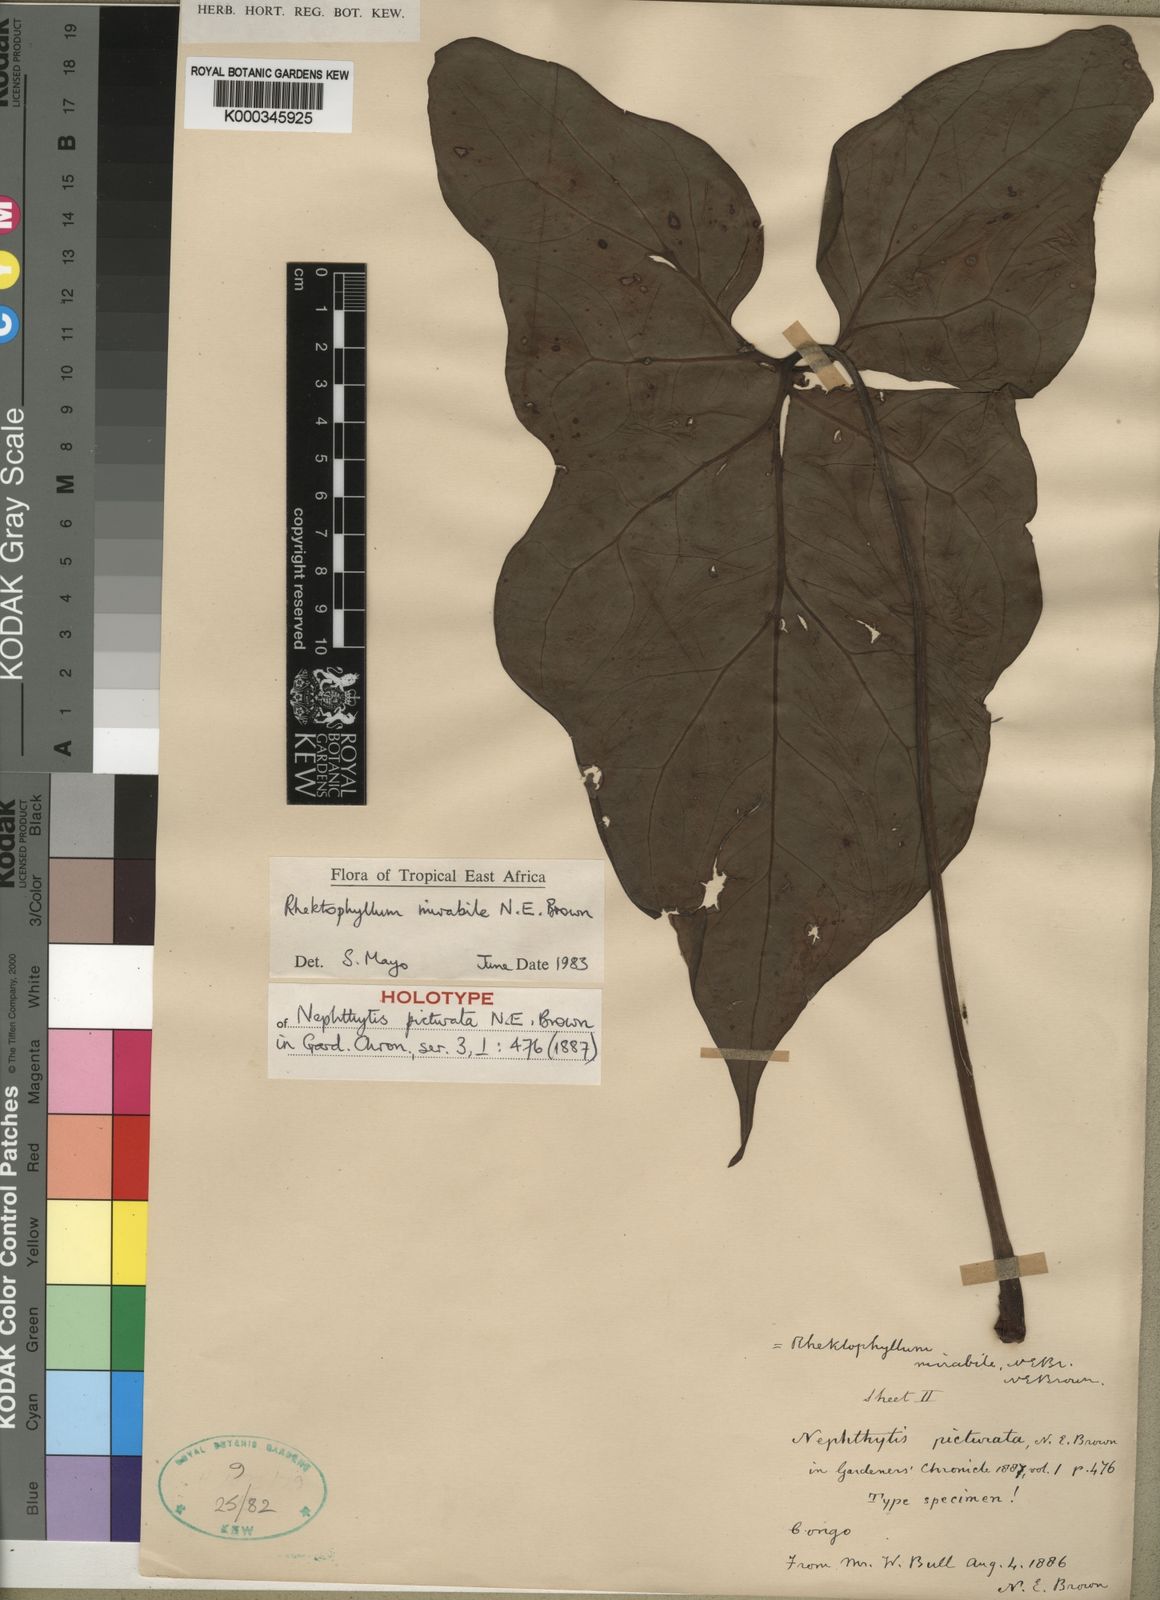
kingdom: Plantae
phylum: Tracheophyta
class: Liliopsida
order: Alismatales
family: Araceae
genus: Cercestis
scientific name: Cercestis mirabilis
